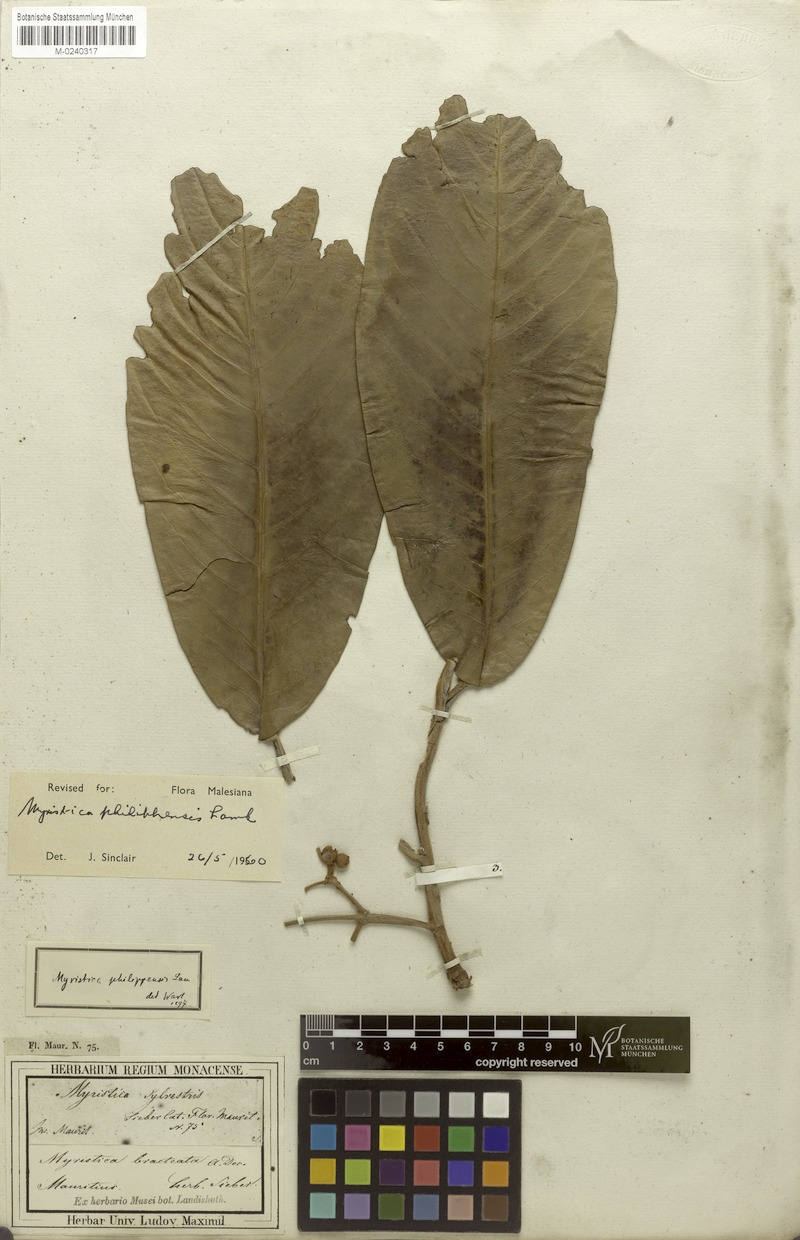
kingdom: Plantae
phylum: Tracheophyta
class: Magnoliopsida
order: Magnoliales
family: Myristicaceae
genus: Myristica
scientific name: Myristica philippensis
